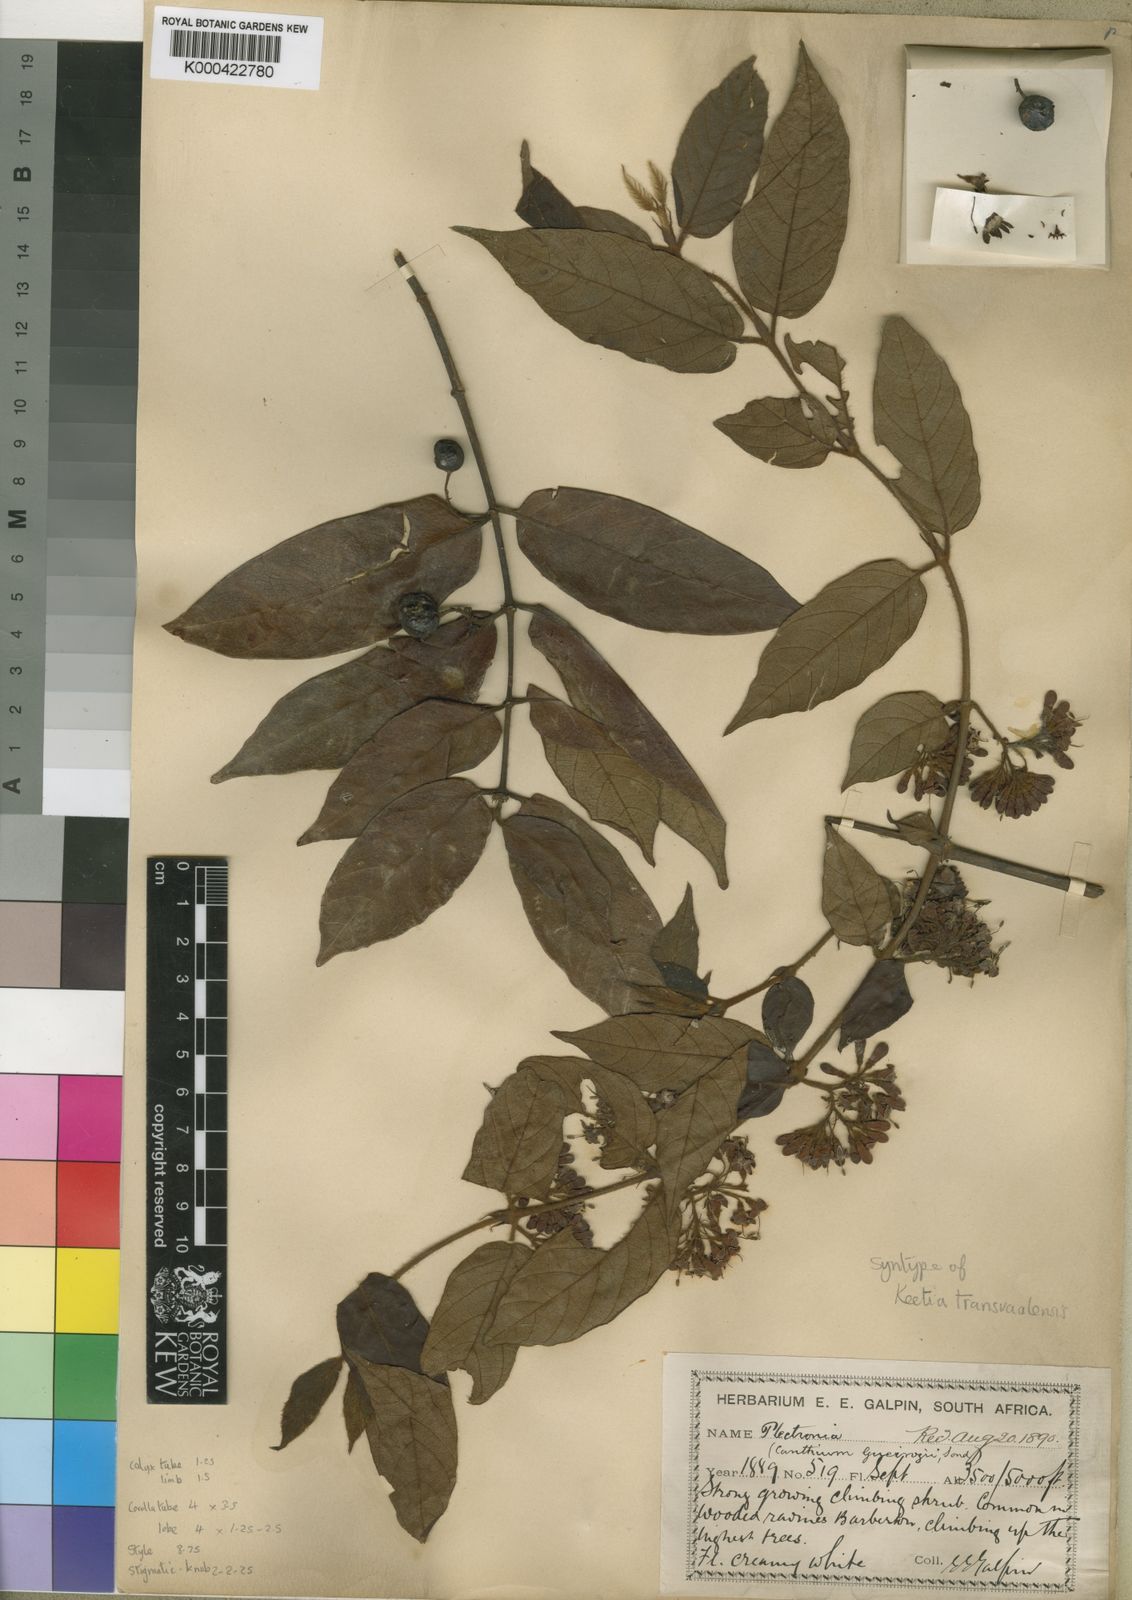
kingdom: Plantae
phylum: Tracheophyta
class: Magnoliopsida
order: Gentianales
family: Rubiaceae
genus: Keetia
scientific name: Keetia gueinzii
